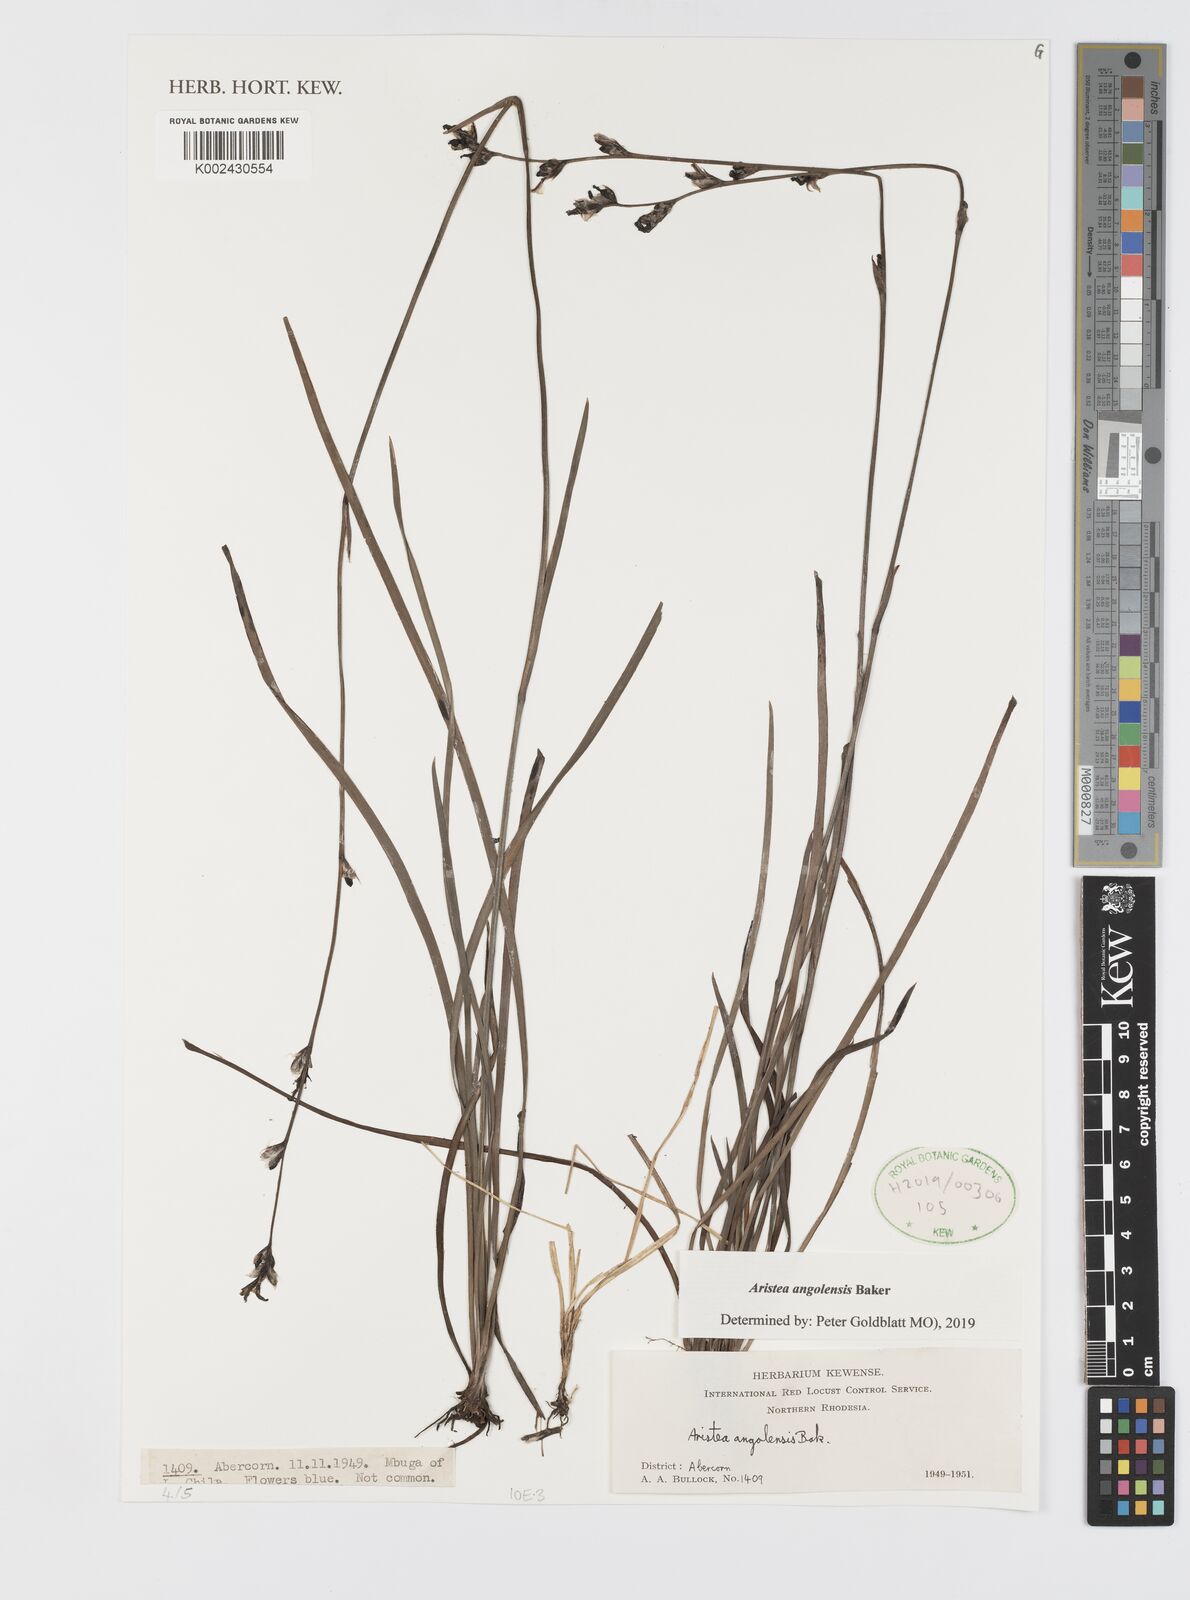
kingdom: Plantae
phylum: Tracheophyta
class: Liliopsida
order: Asparagales
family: Iridaceae
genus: Aristea
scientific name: Aristea angolensis
